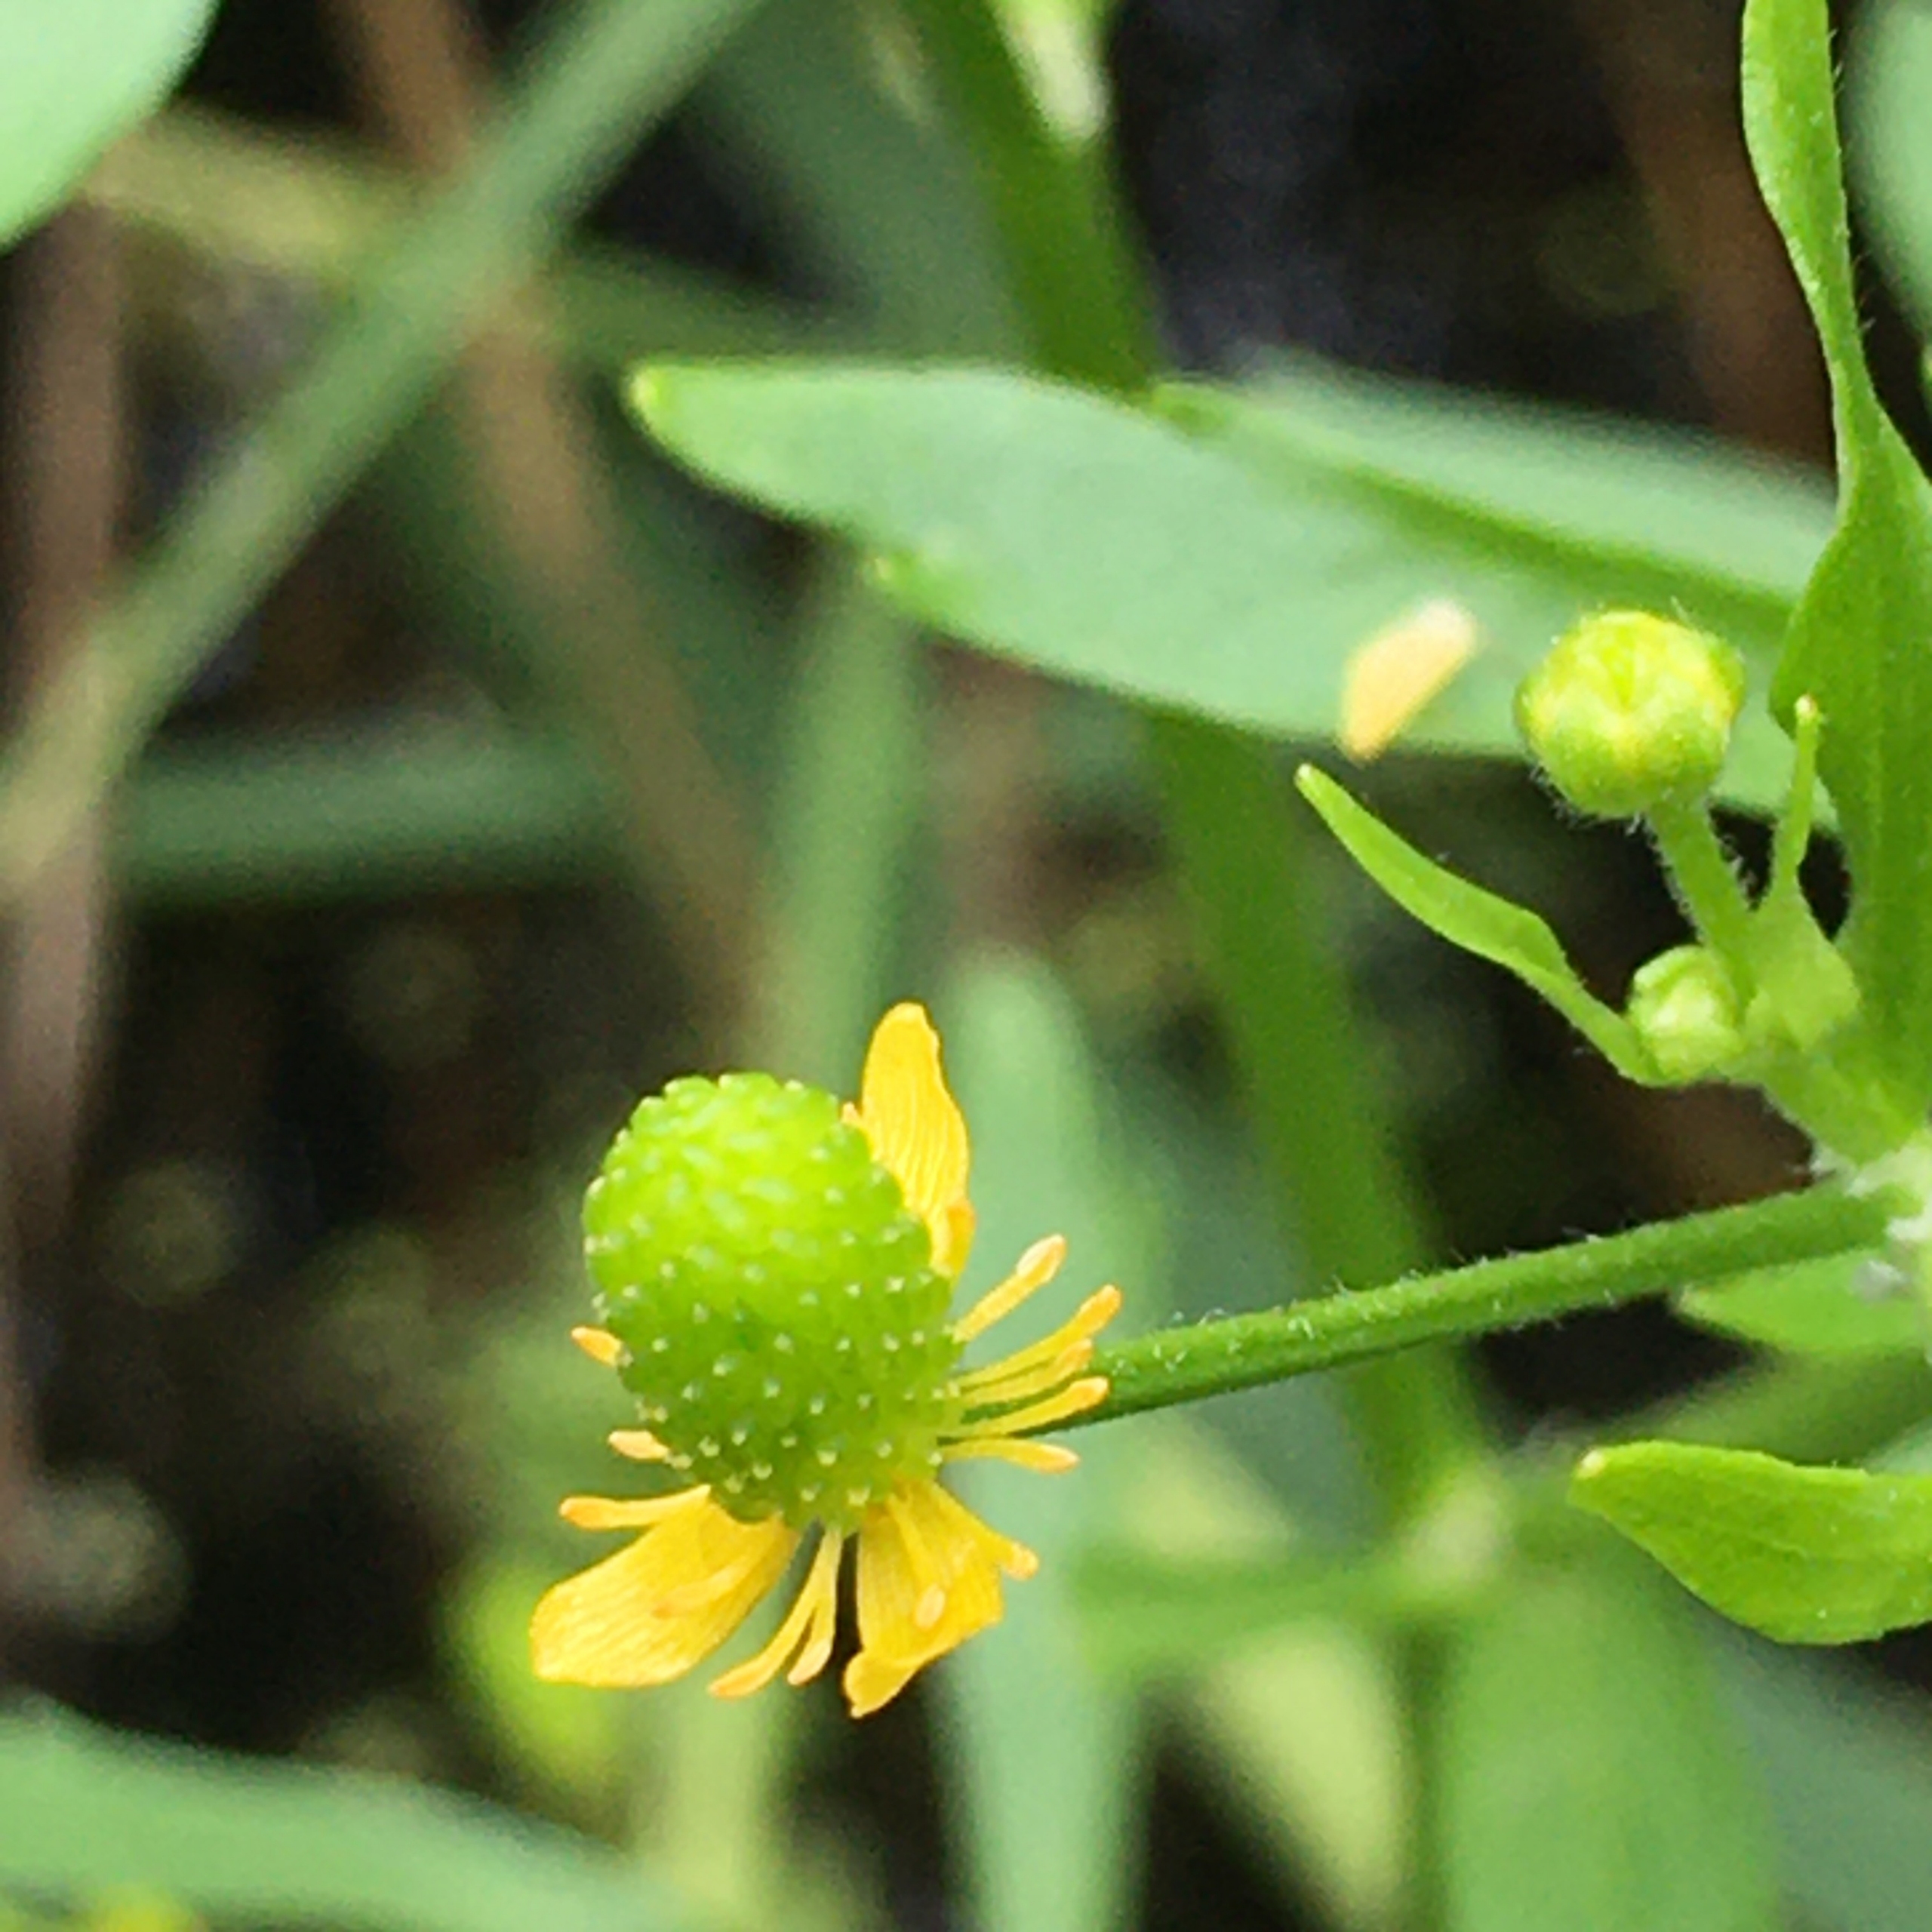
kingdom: Plantae
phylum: Tracheophyta
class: Magnoliopsida
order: Ranunculales
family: Ranunculaceae
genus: Ranunculus
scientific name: Ranunculus sceleratus
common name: Tigger-ranunkel
